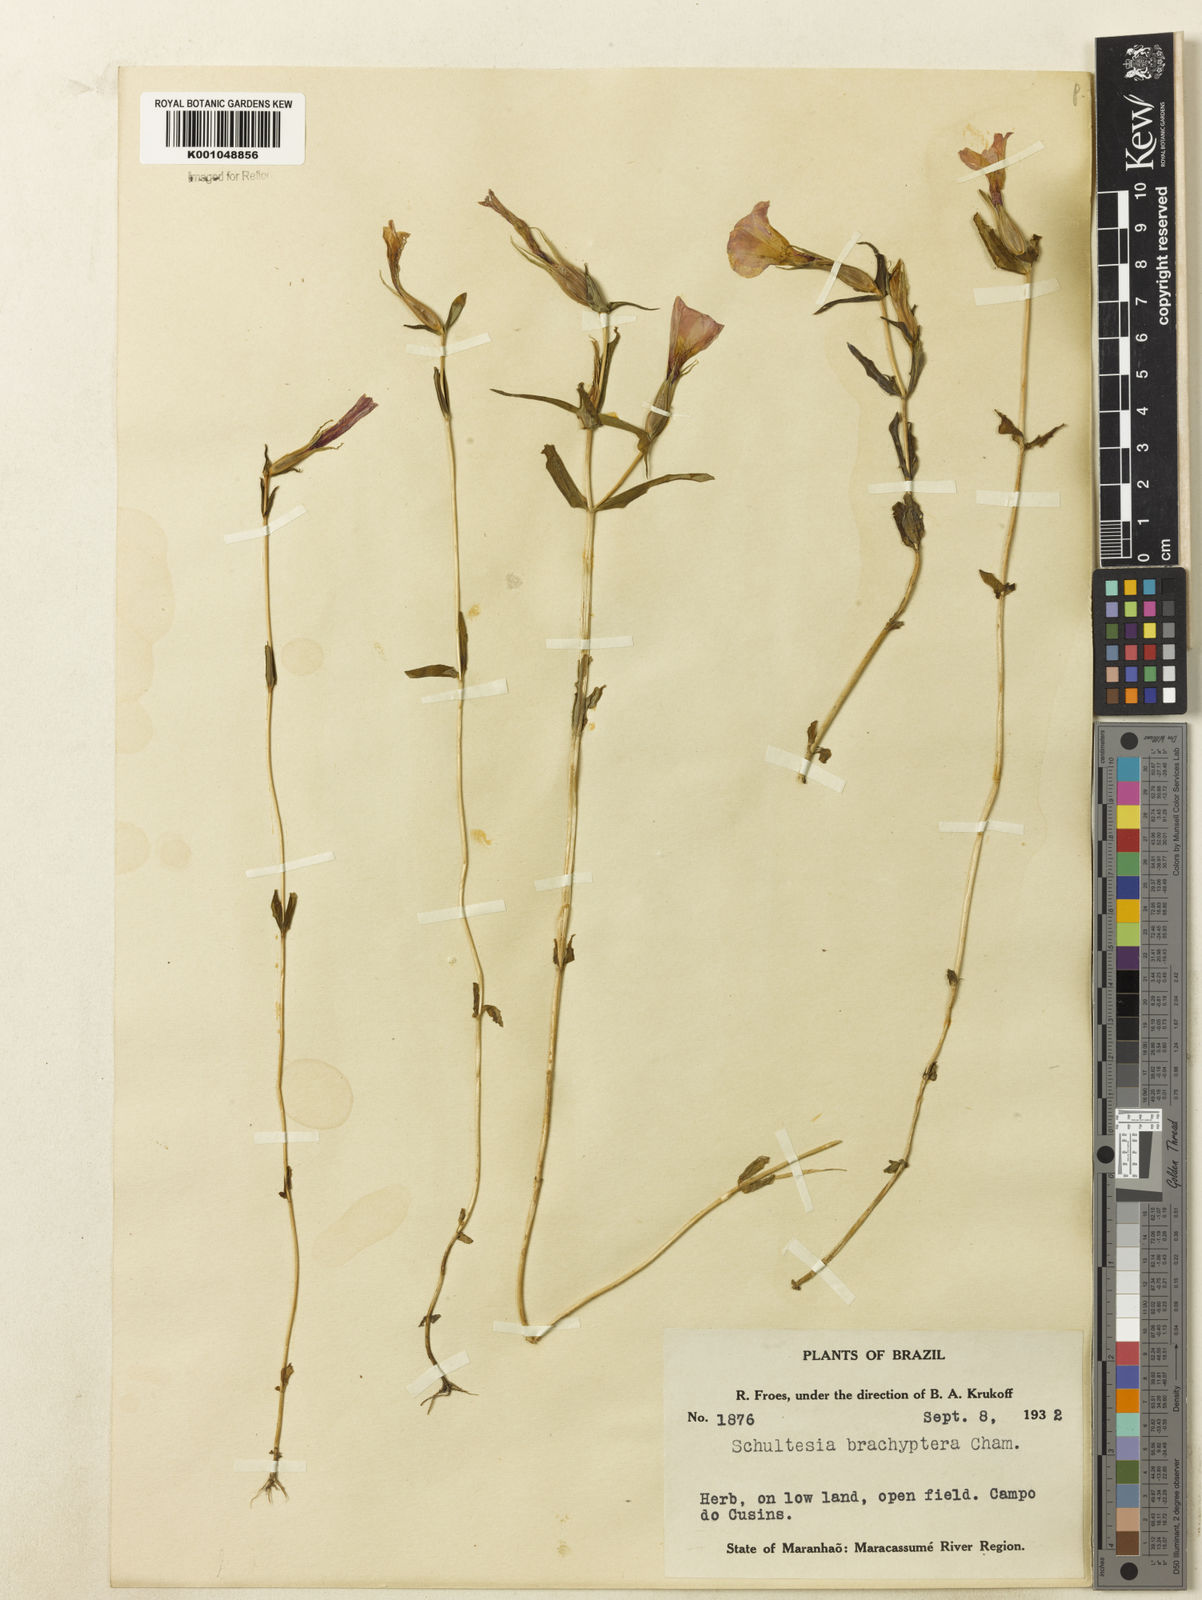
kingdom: Plantae
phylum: Tracheophyta
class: Magnoliopsida
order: Gentianales
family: Gentianaceae
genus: Schultesia
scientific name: Schultesia brachyptera
